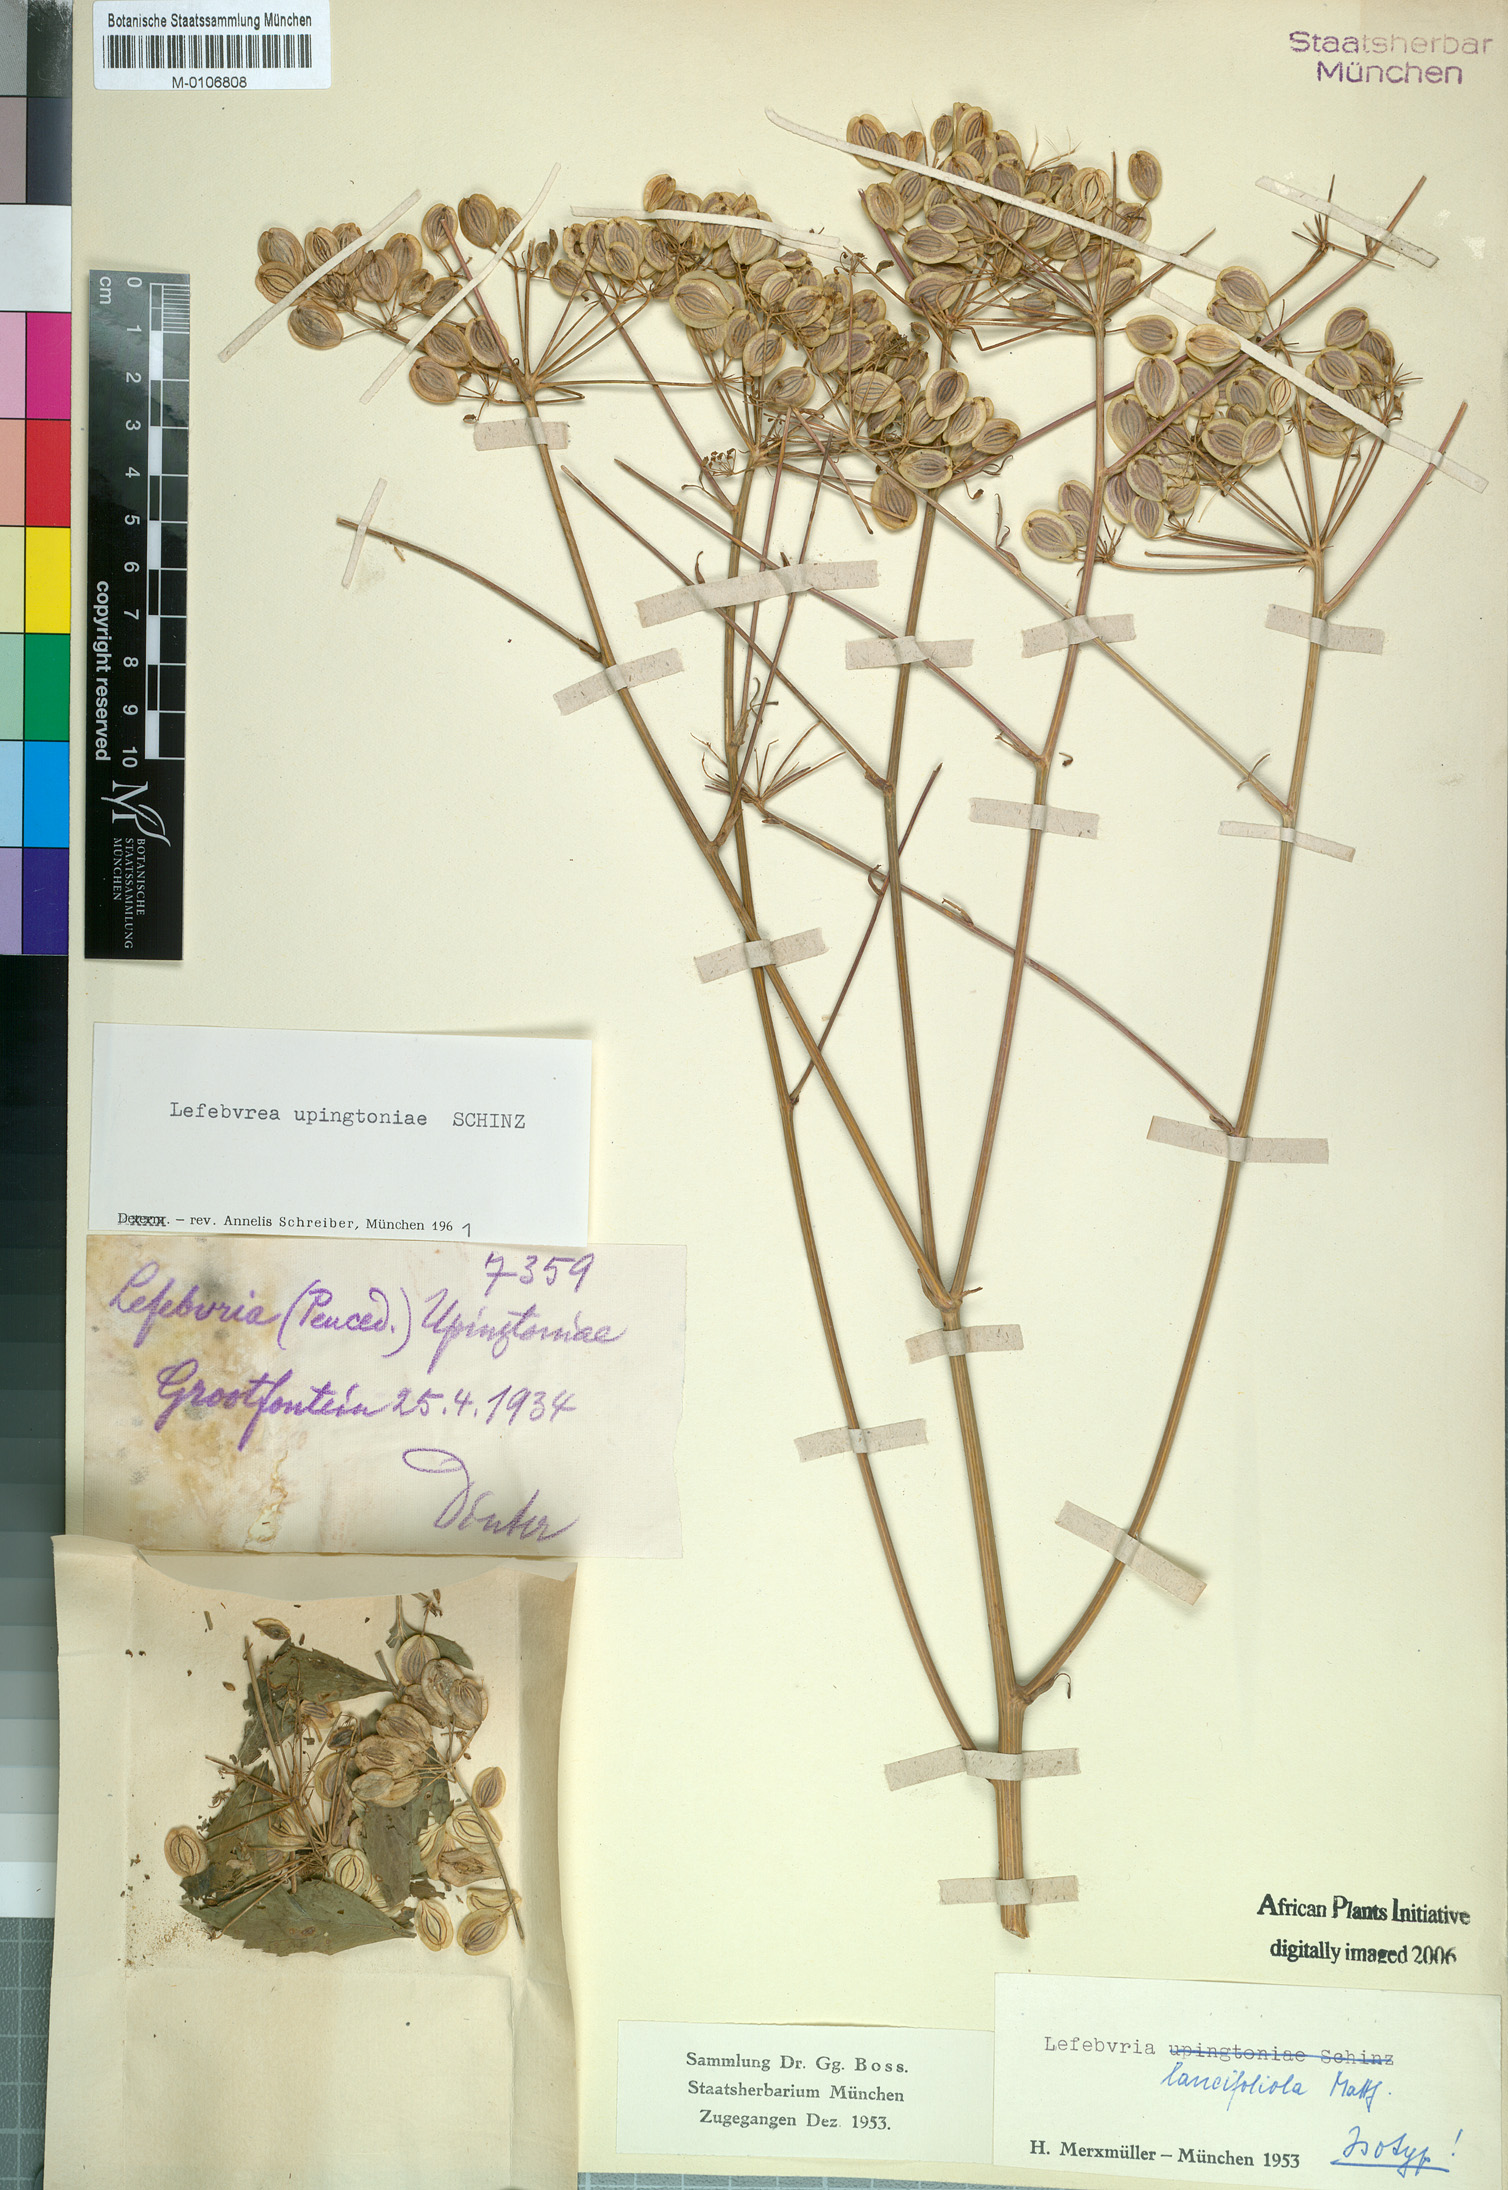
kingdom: Plantae
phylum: Tracheophyta
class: Magnoliopsida
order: Apiales
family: Apiaceae
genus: Lefebvrea
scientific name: Lefebvrea grantii
